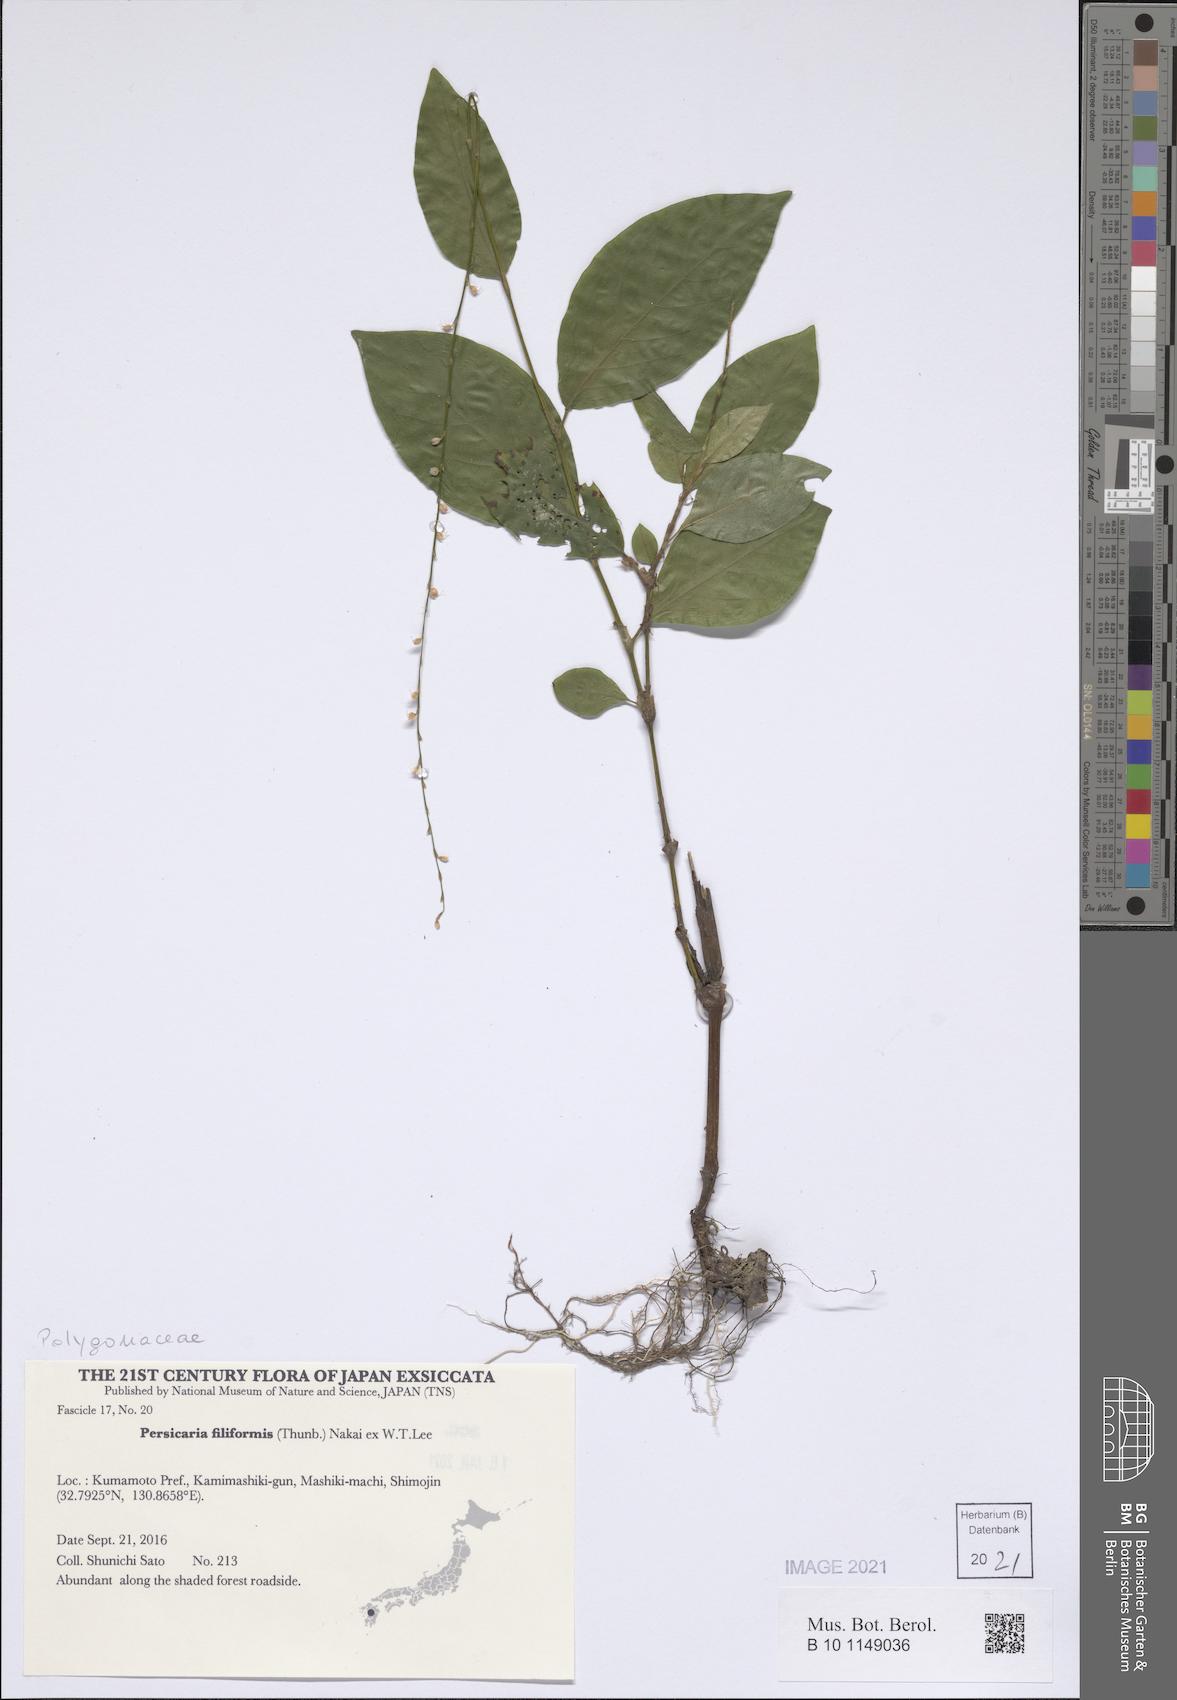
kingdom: Plantae
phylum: Tracheophyta
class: Magnoliopsida
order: Caryophyllales
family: Polygonaceae
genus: Persicaria
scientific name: Persicaria filiformis
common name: Asian jumpseed
